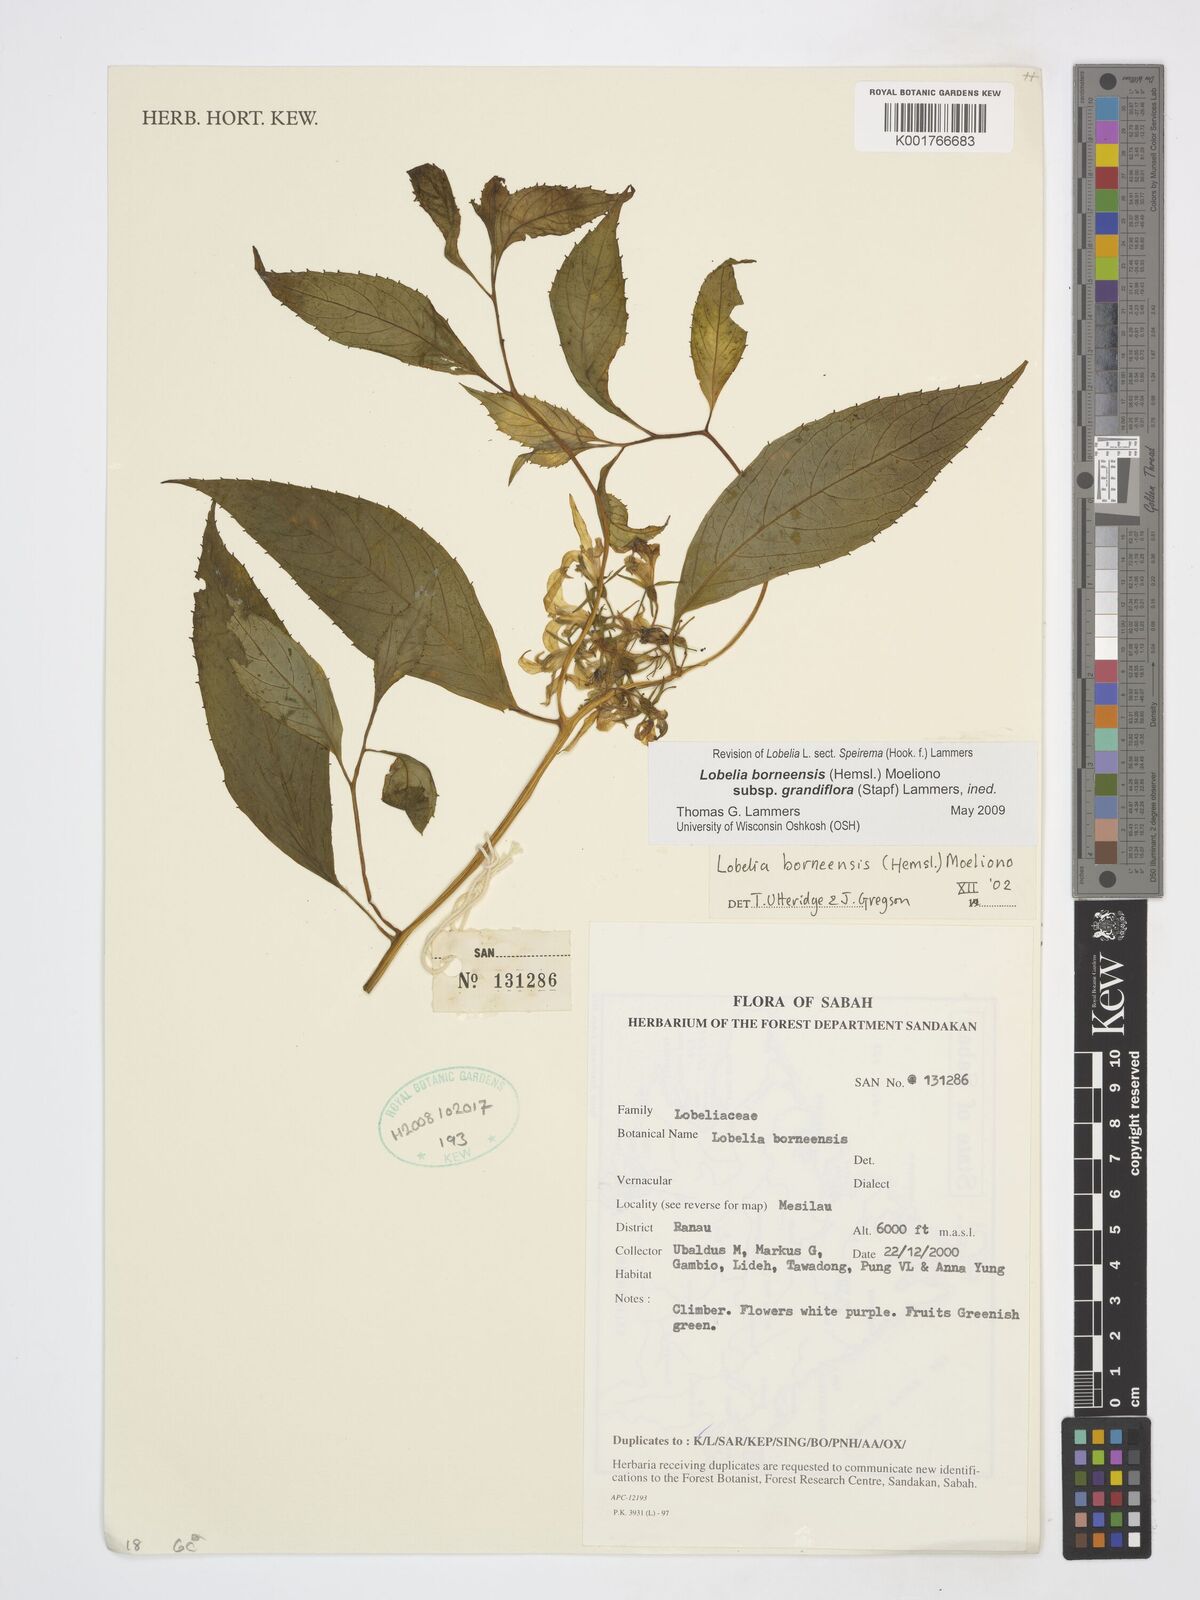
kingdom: Plantae
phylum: Tracheophyta
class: Magnoliopsida
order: Asterales
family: Campanulaceae
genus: Lobelia
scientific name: Lobelia borneensis
